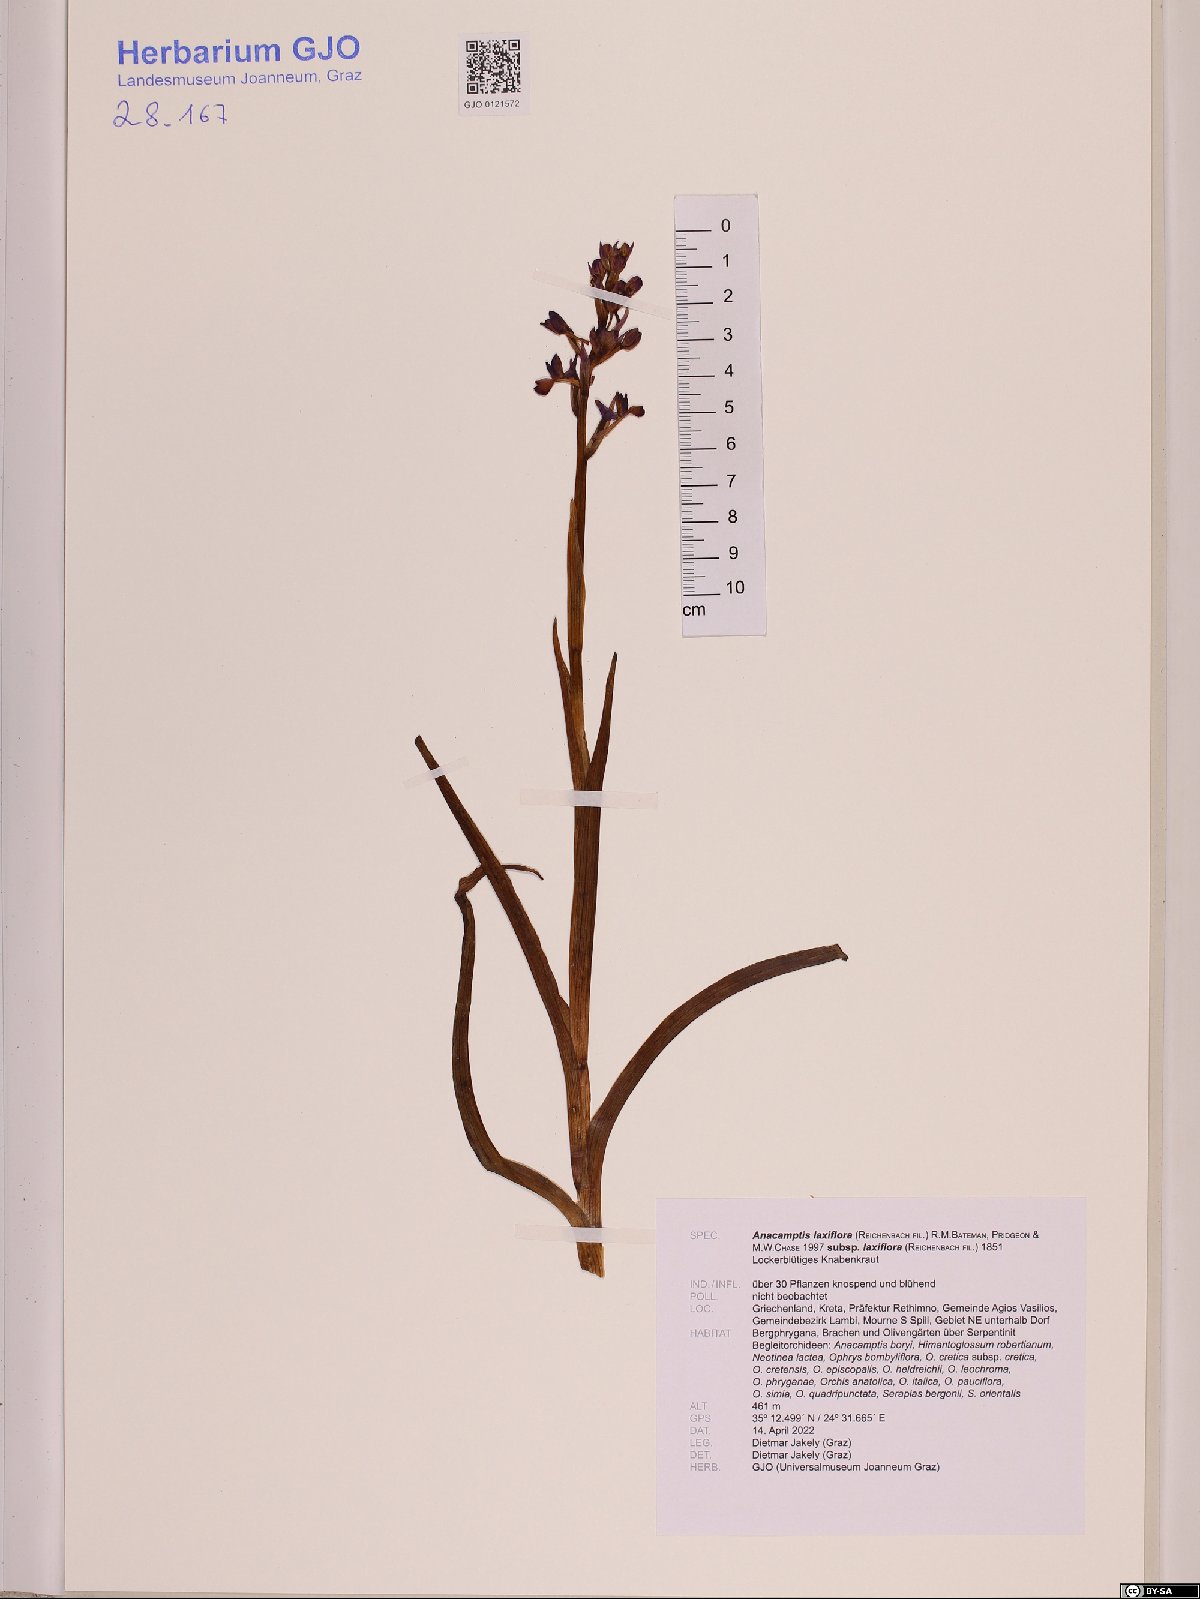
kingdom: Plantae
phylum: Tracheophyta
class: Liliopsida
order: Asparagales
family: Orchidaceae
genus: Anacamptis
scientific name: Anacamptis laxiflora
